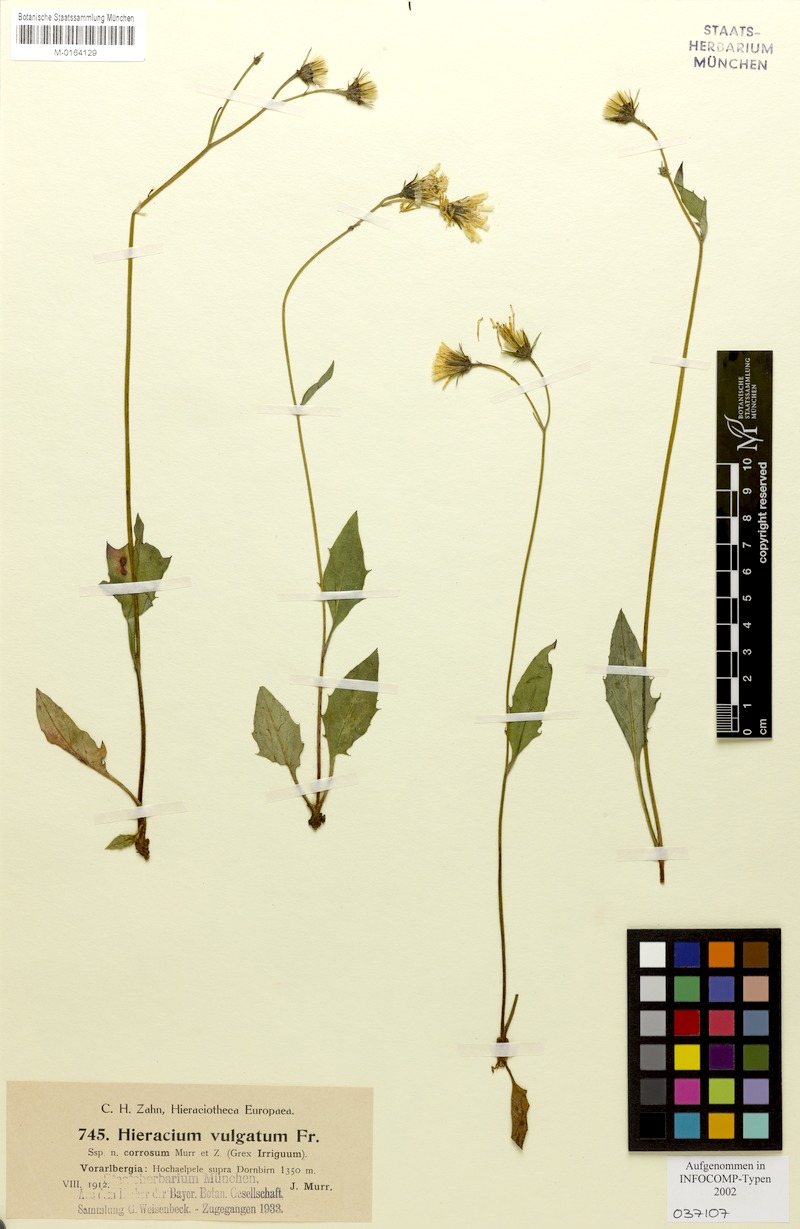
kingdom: Plantae
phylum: Tracheophyta
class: Magnoliopsida
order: Asterales
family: Asteraceae
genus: Hieracium
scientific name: Hieracium lachenalii
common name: Common hawkweed
